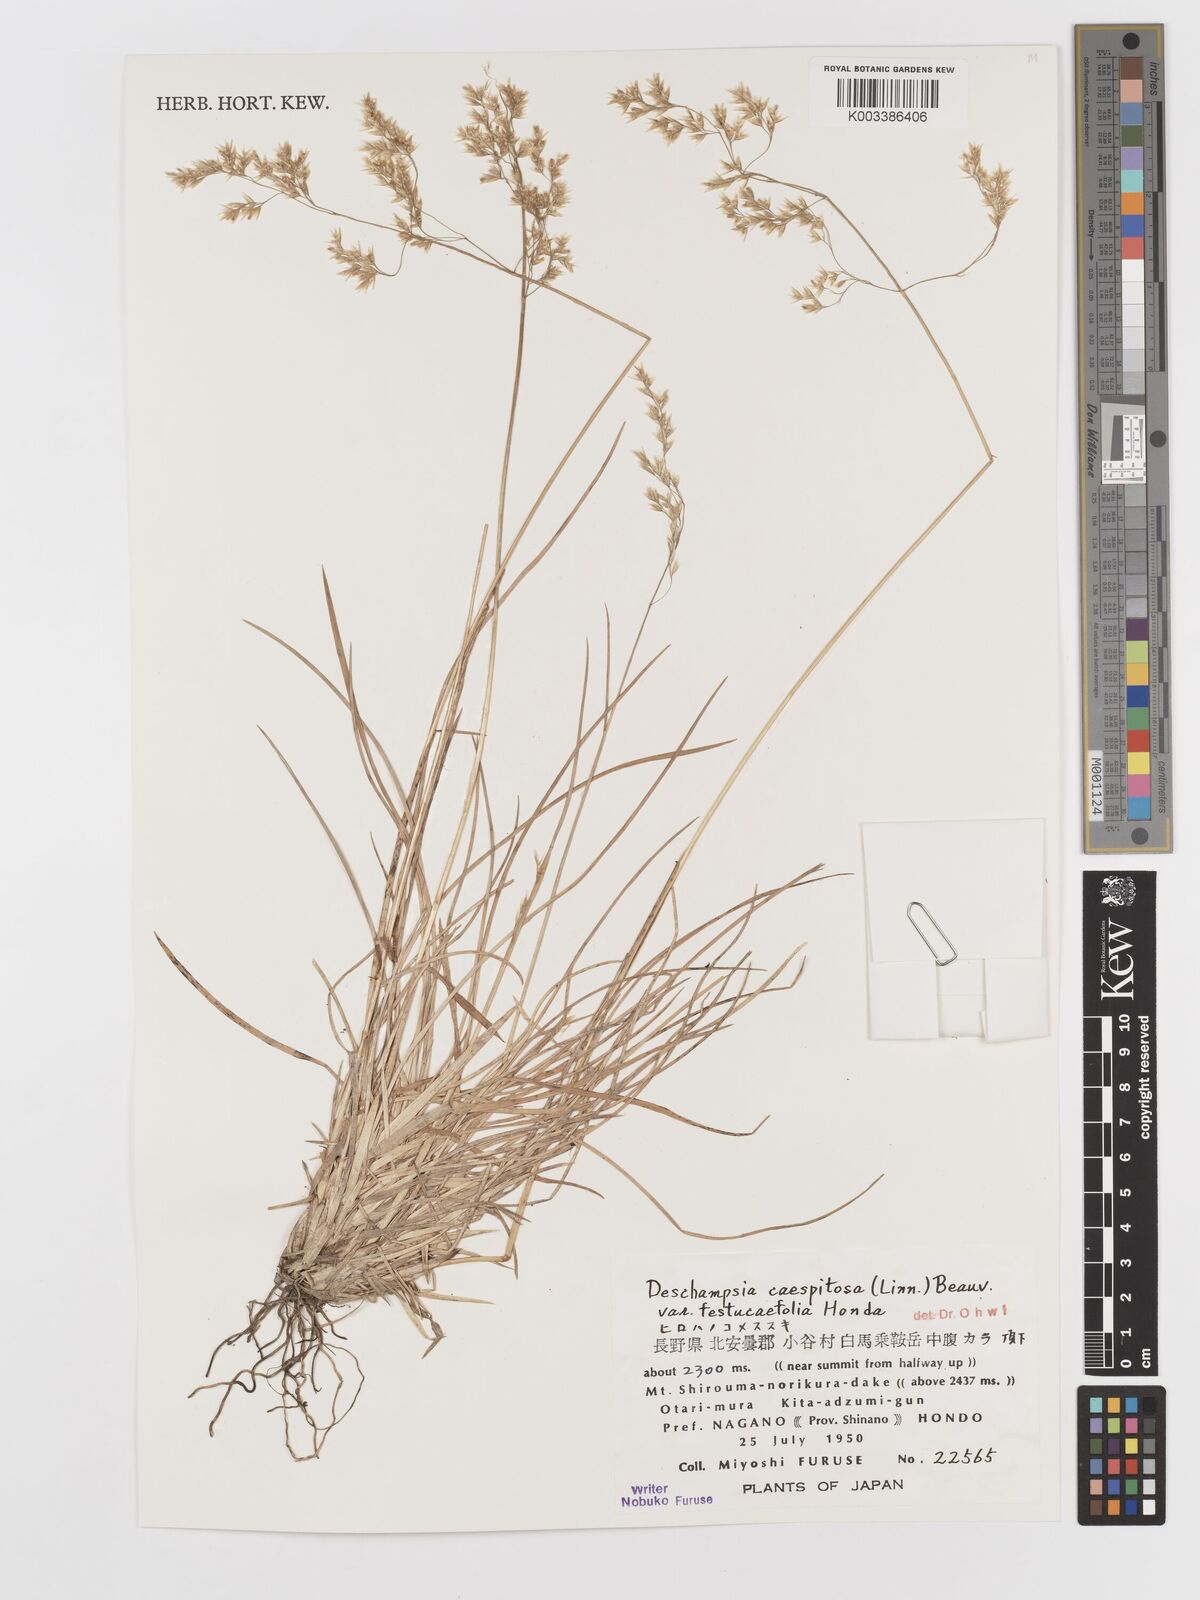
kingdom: Plantae
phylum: Tracheophyta
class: Liliopsida
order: Poales
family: Poaceae
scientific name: Poaceae
